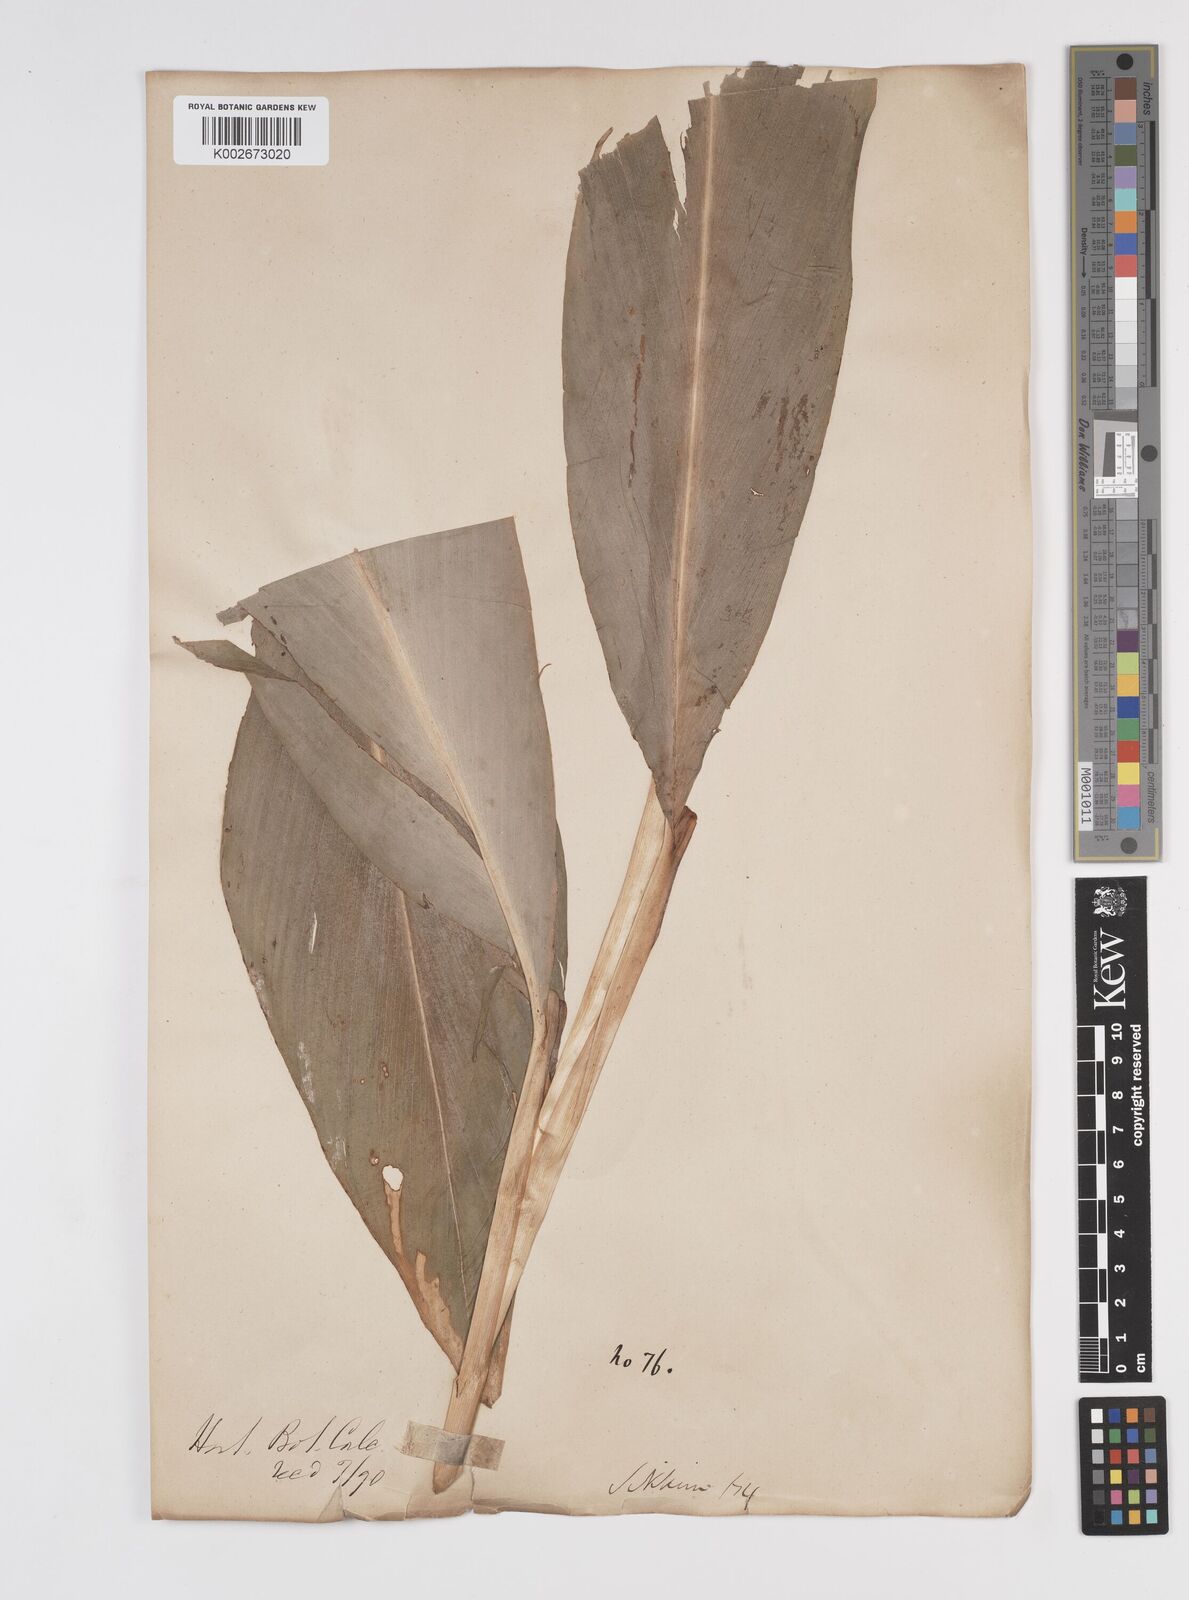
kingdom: Plantae
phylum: Tracheophyta
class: Liliopsida
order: Zingiberales
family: Zingiberaceae
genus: Amomum
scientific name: Amomum dealbatum
